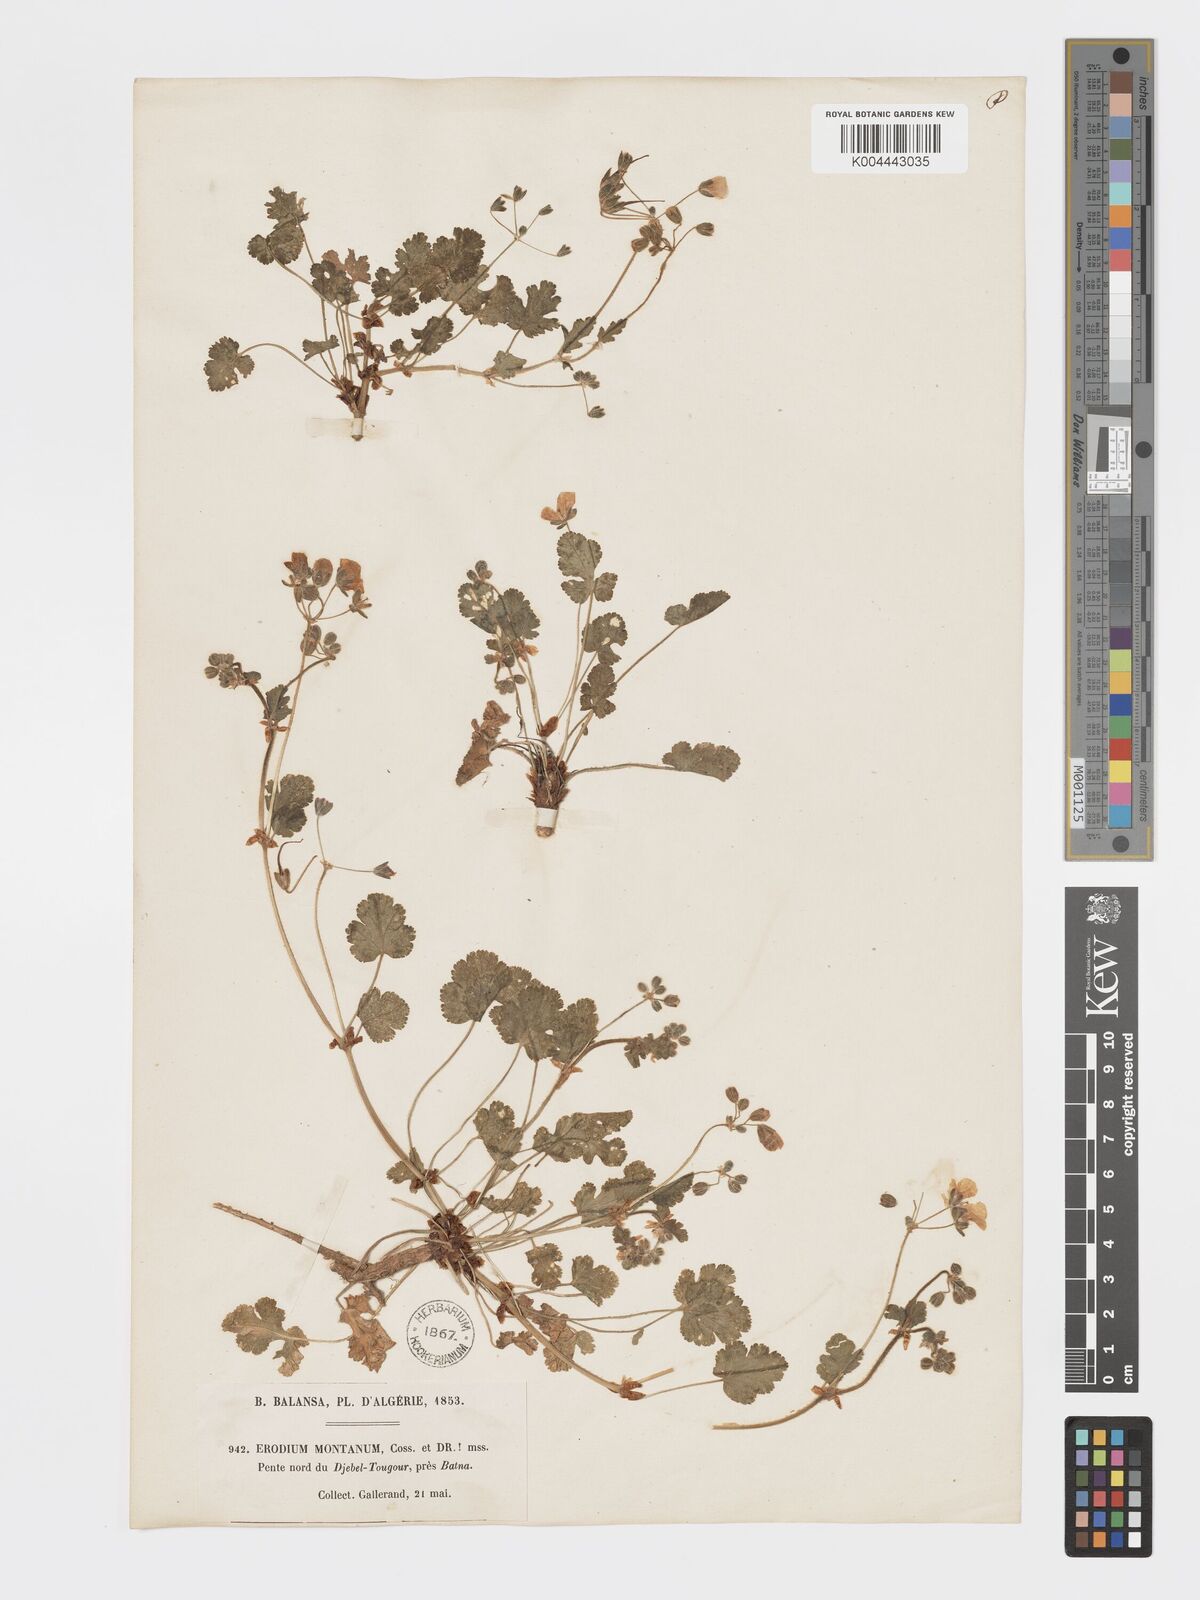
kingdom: Plantae
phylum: Tracheophyta
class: Magnoliopsida
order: Geraniales
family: Geraniaceae
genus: Erodium
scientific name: Erodium trifolium
